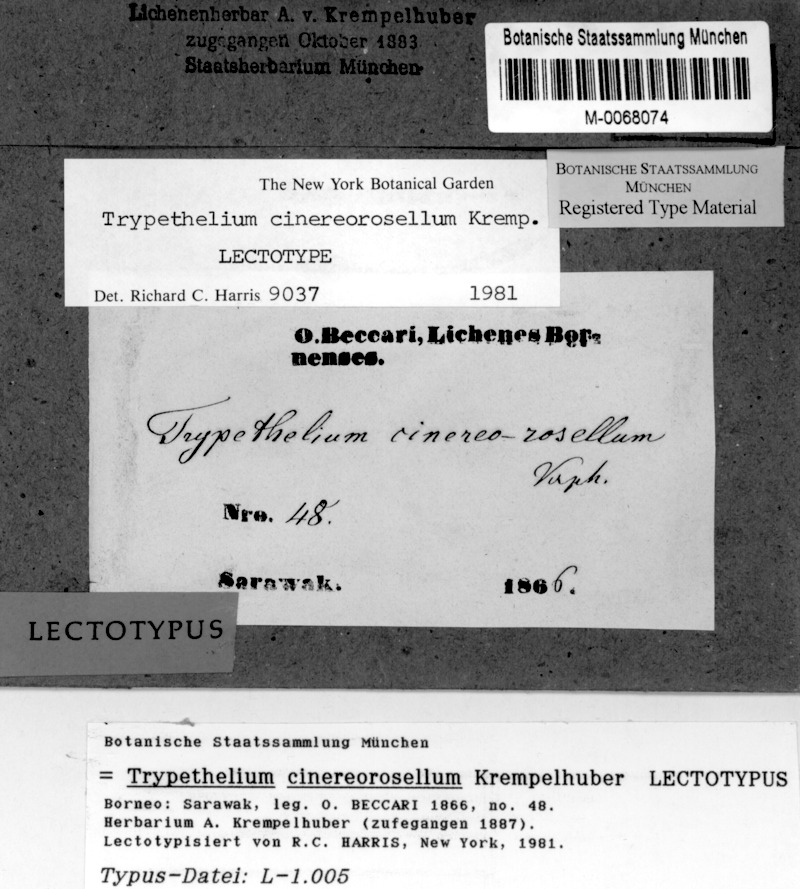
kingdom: Fungi
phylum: Ascomycota
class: Dothideomycetes
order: Trypetheliales
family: Trypetheliaceae
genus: Astrothelium
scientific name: Astrothelium cinereorosellum
